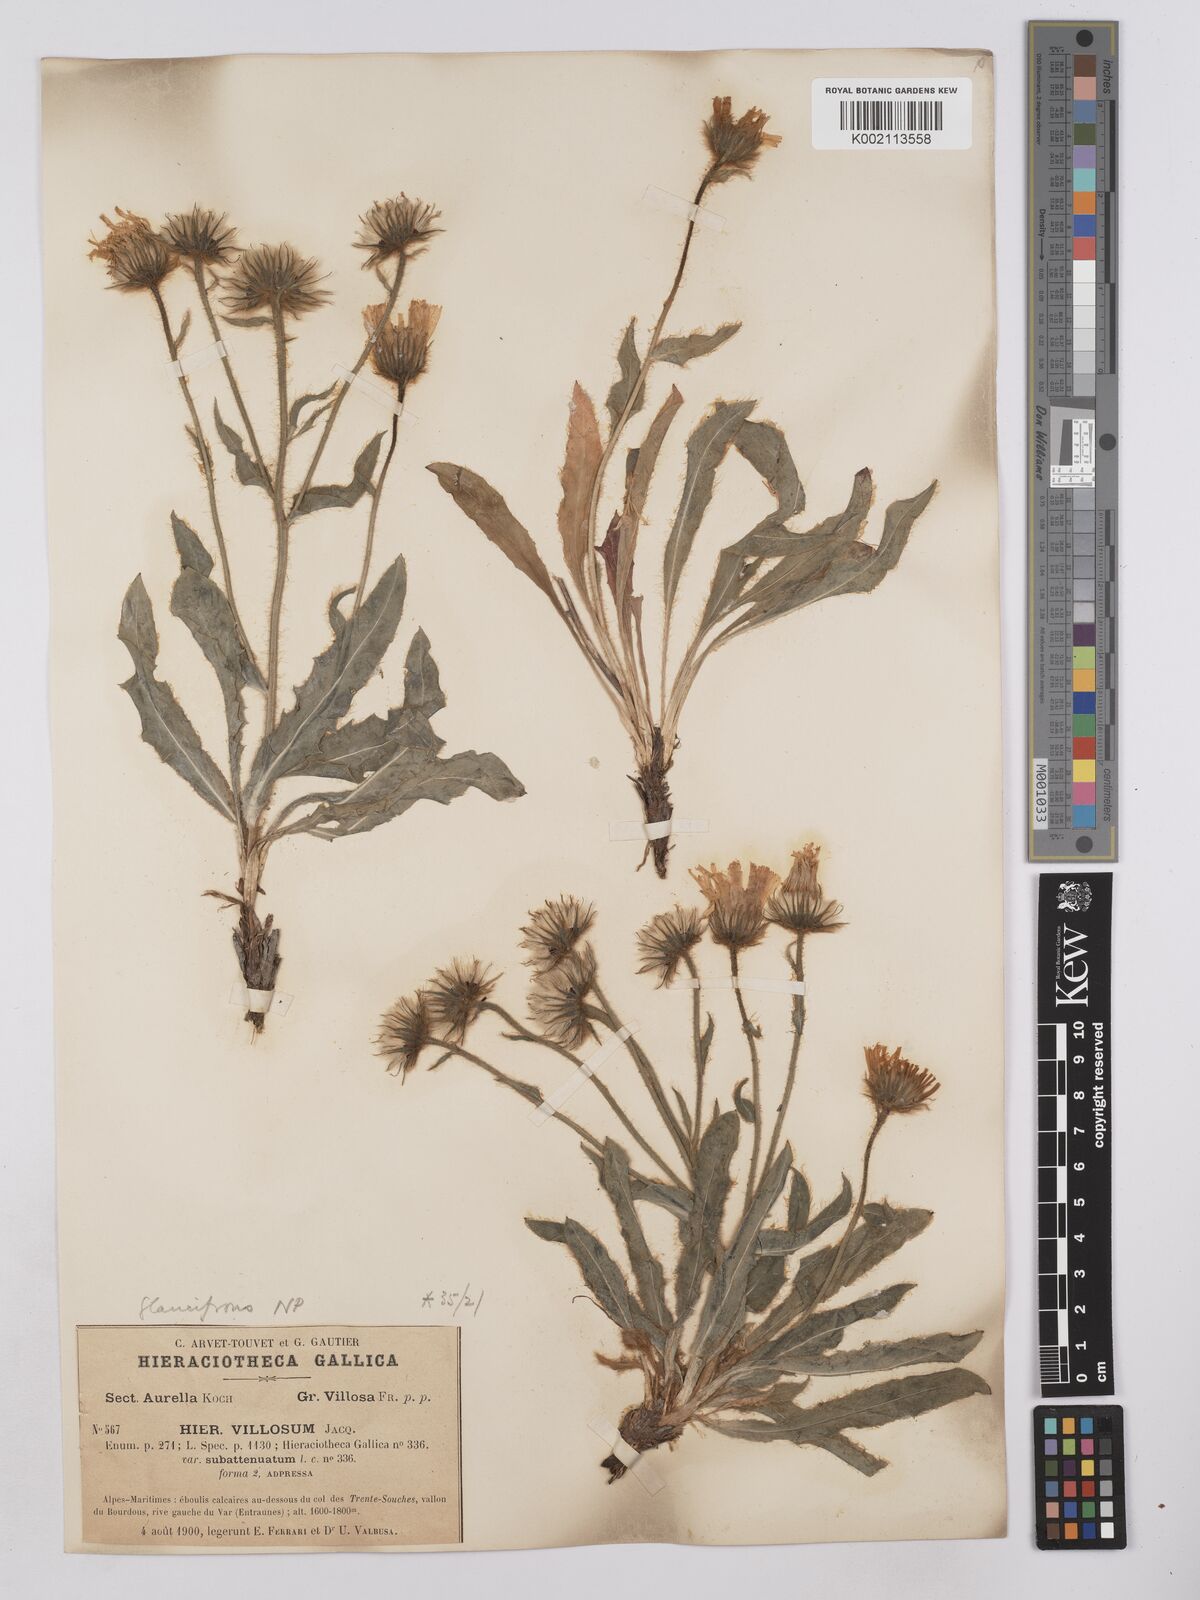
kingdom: Plantae
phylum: Tracheophyta
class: Magnoliopsida
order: Asterales
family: Asteraceae
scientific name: Asteraceae
